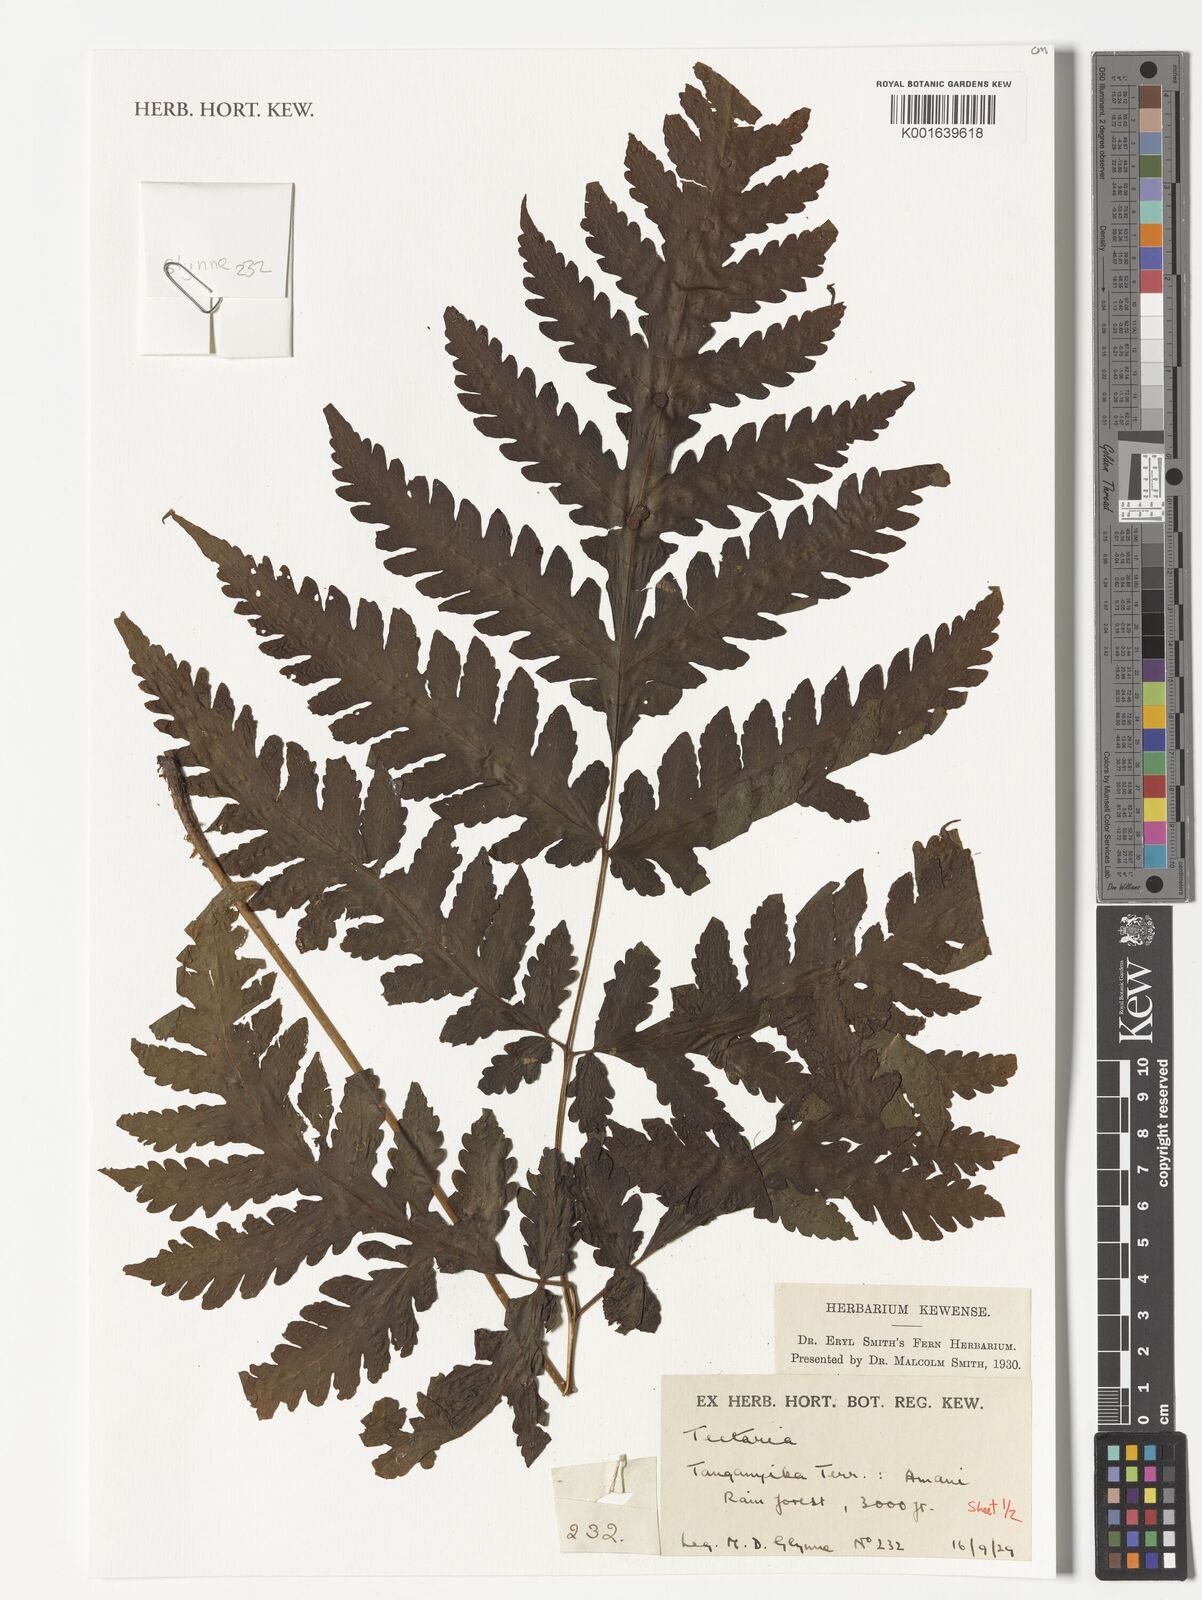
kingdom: Plantae
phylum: Tracheophyta
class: Polypodiopsida
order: Polypodiales
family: Tectariaceae
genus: Tectaria
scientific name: Tectaria
